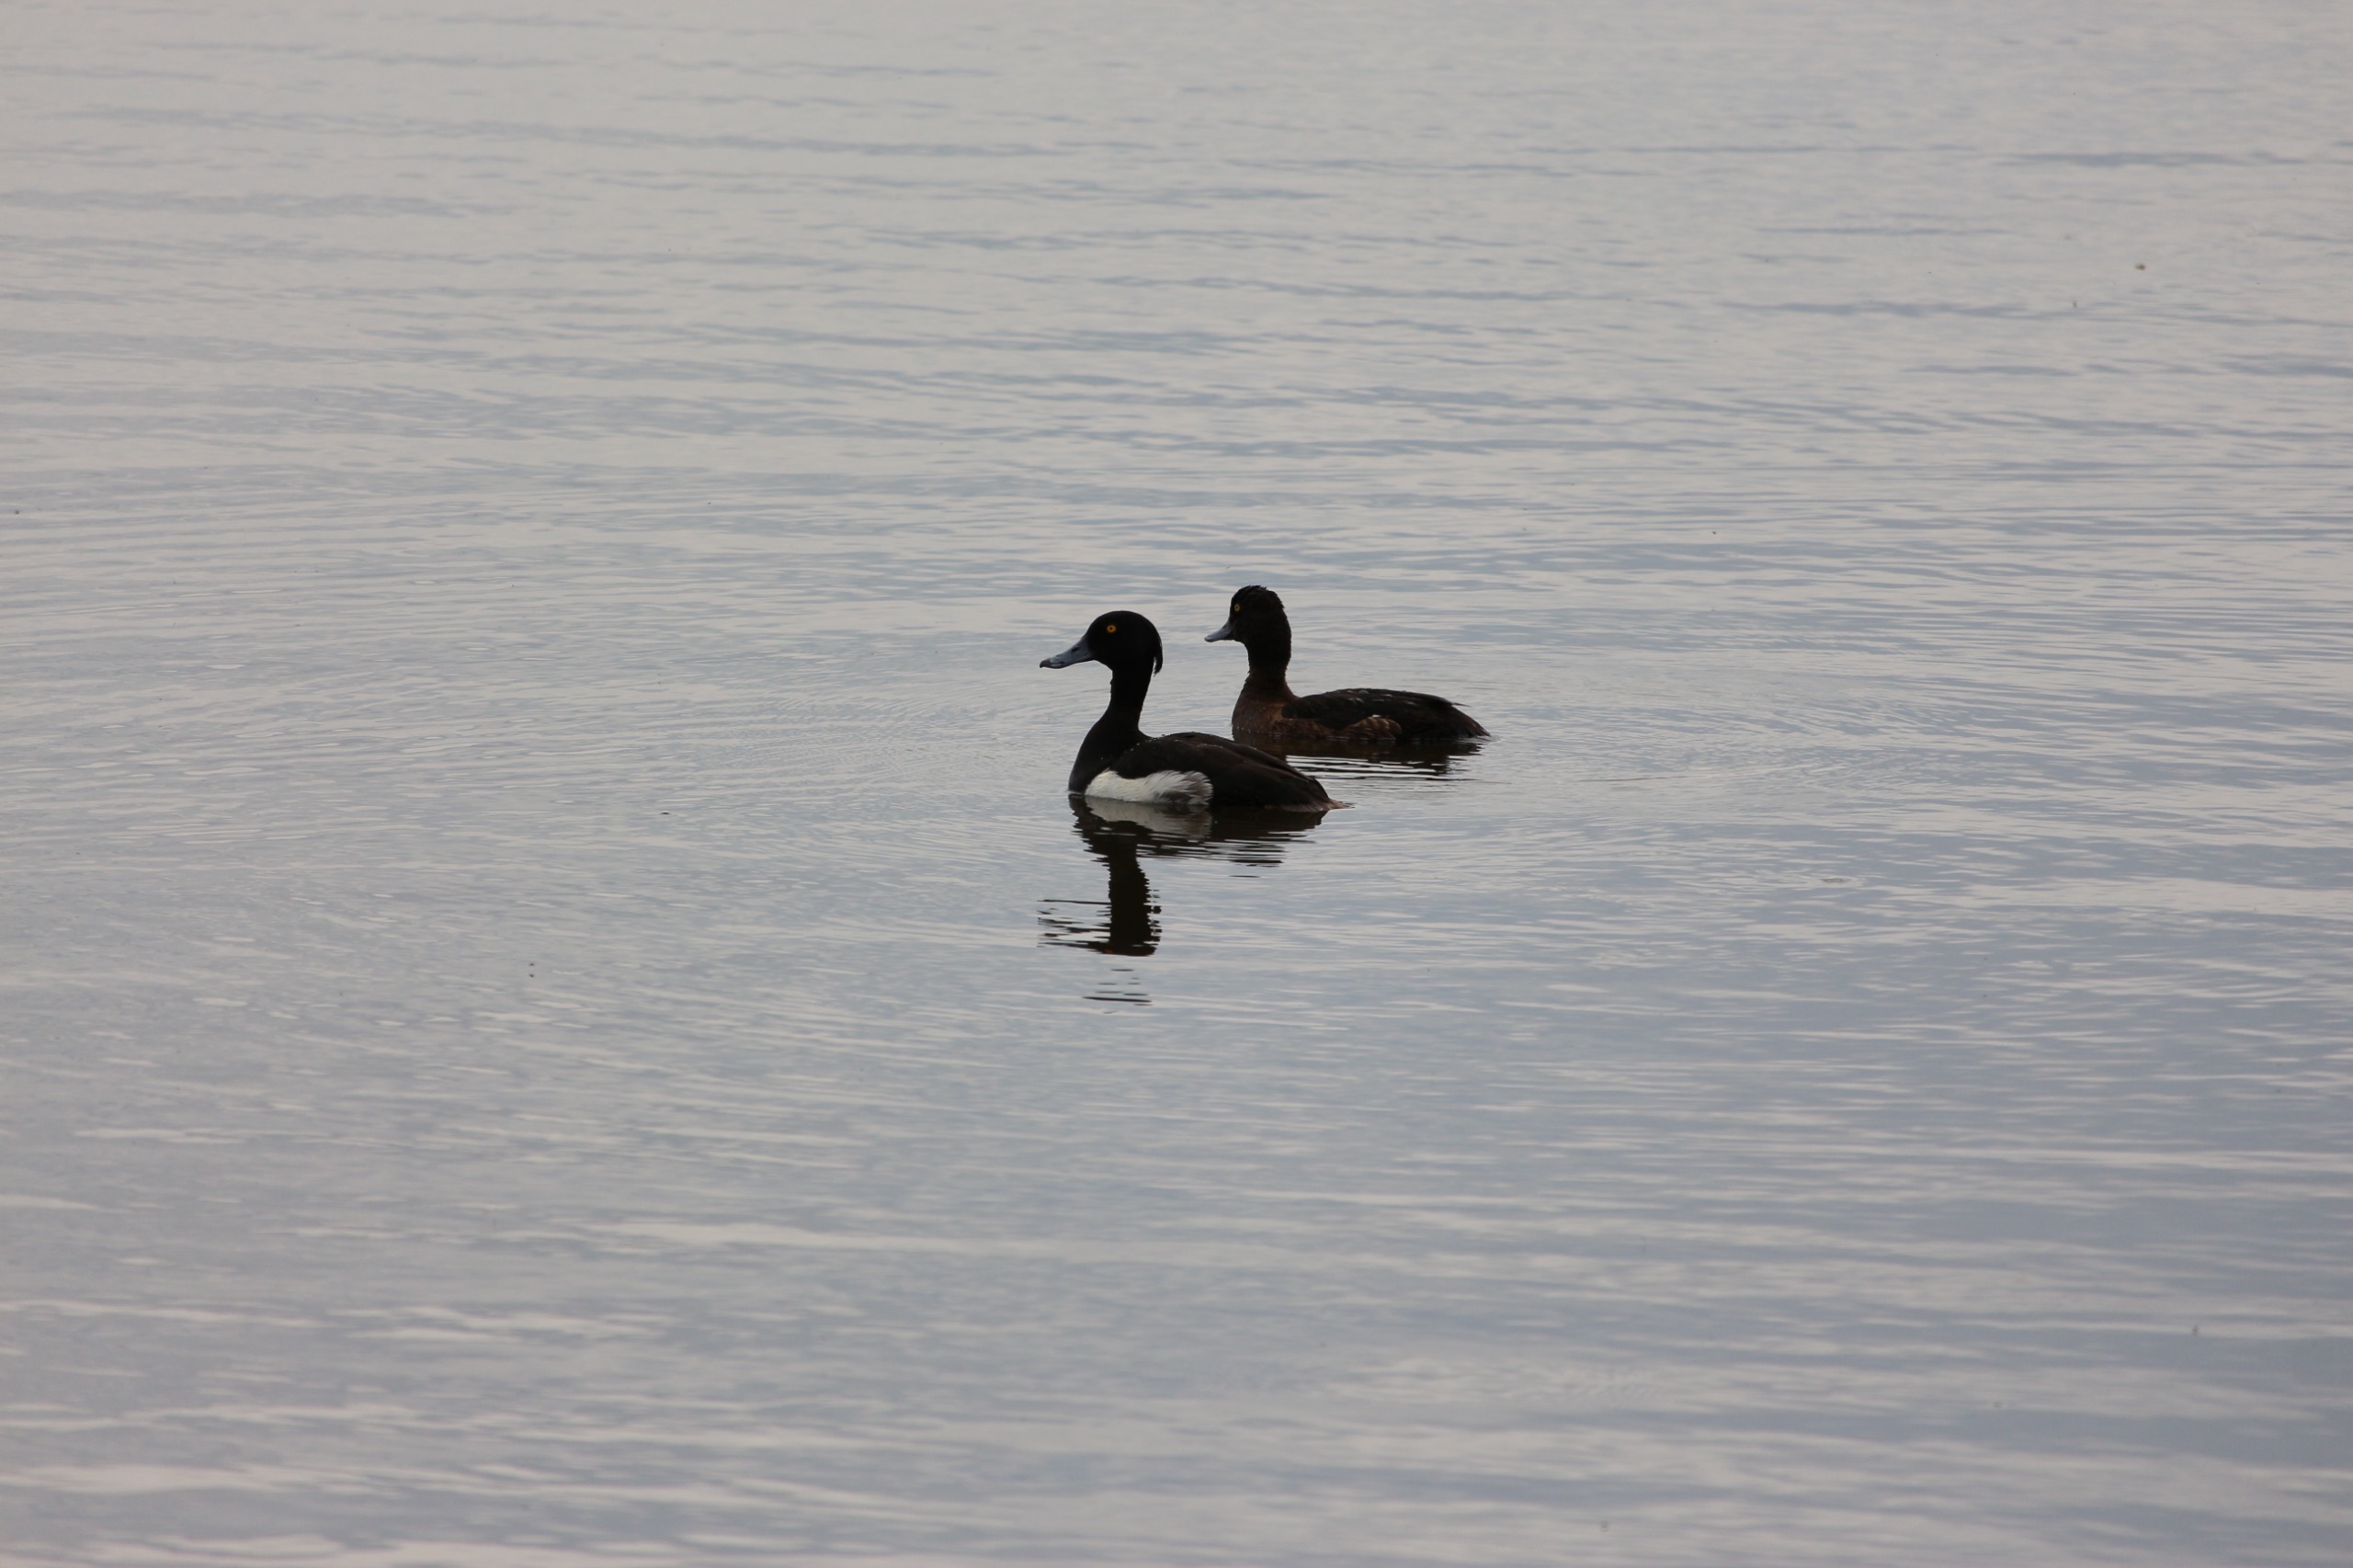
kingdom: Animalia
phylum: Chordata
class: Aves
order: Anseriformes
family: Anatidae
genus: Aythya
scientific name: Aythya fuligula
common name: Troldand
